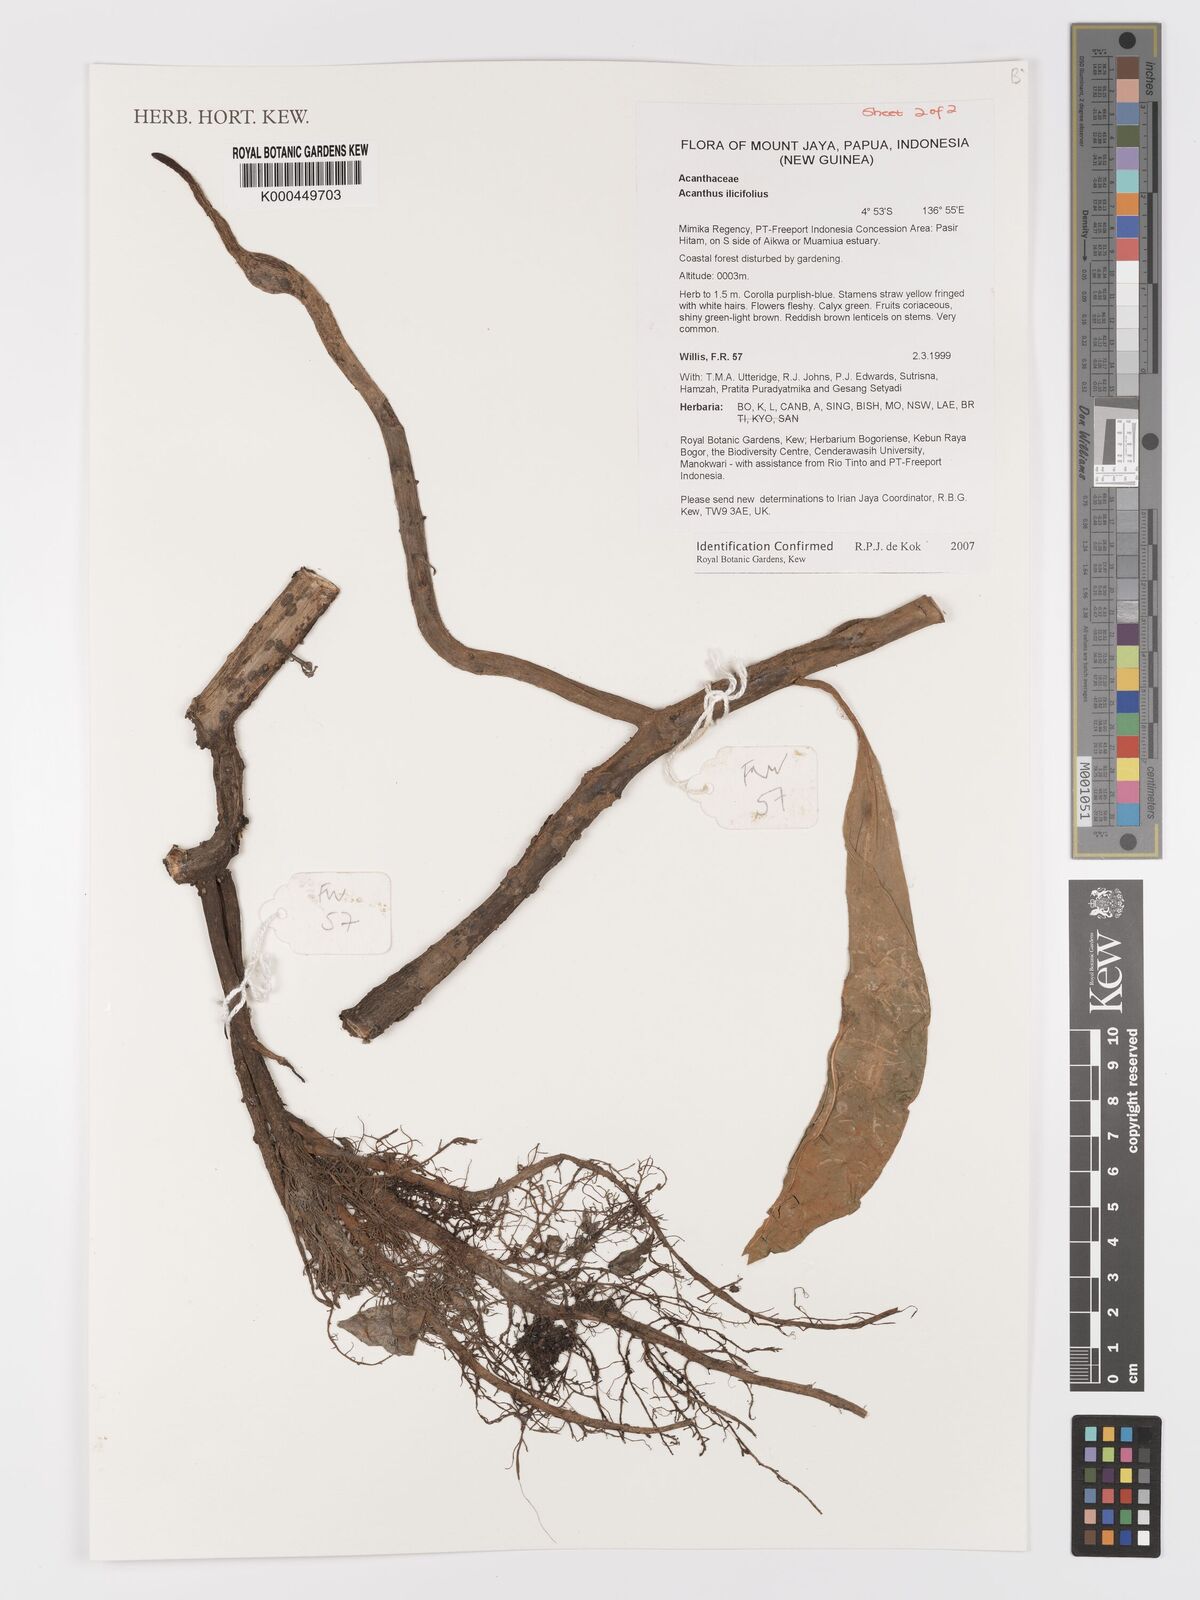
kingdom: Plantae
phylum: Tracheophyta
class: Magnoliopsida
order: Lamiales
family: Acanthaceae
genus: Acanthus
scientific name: Acanthus ilicifolius
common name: Holy mangrove
